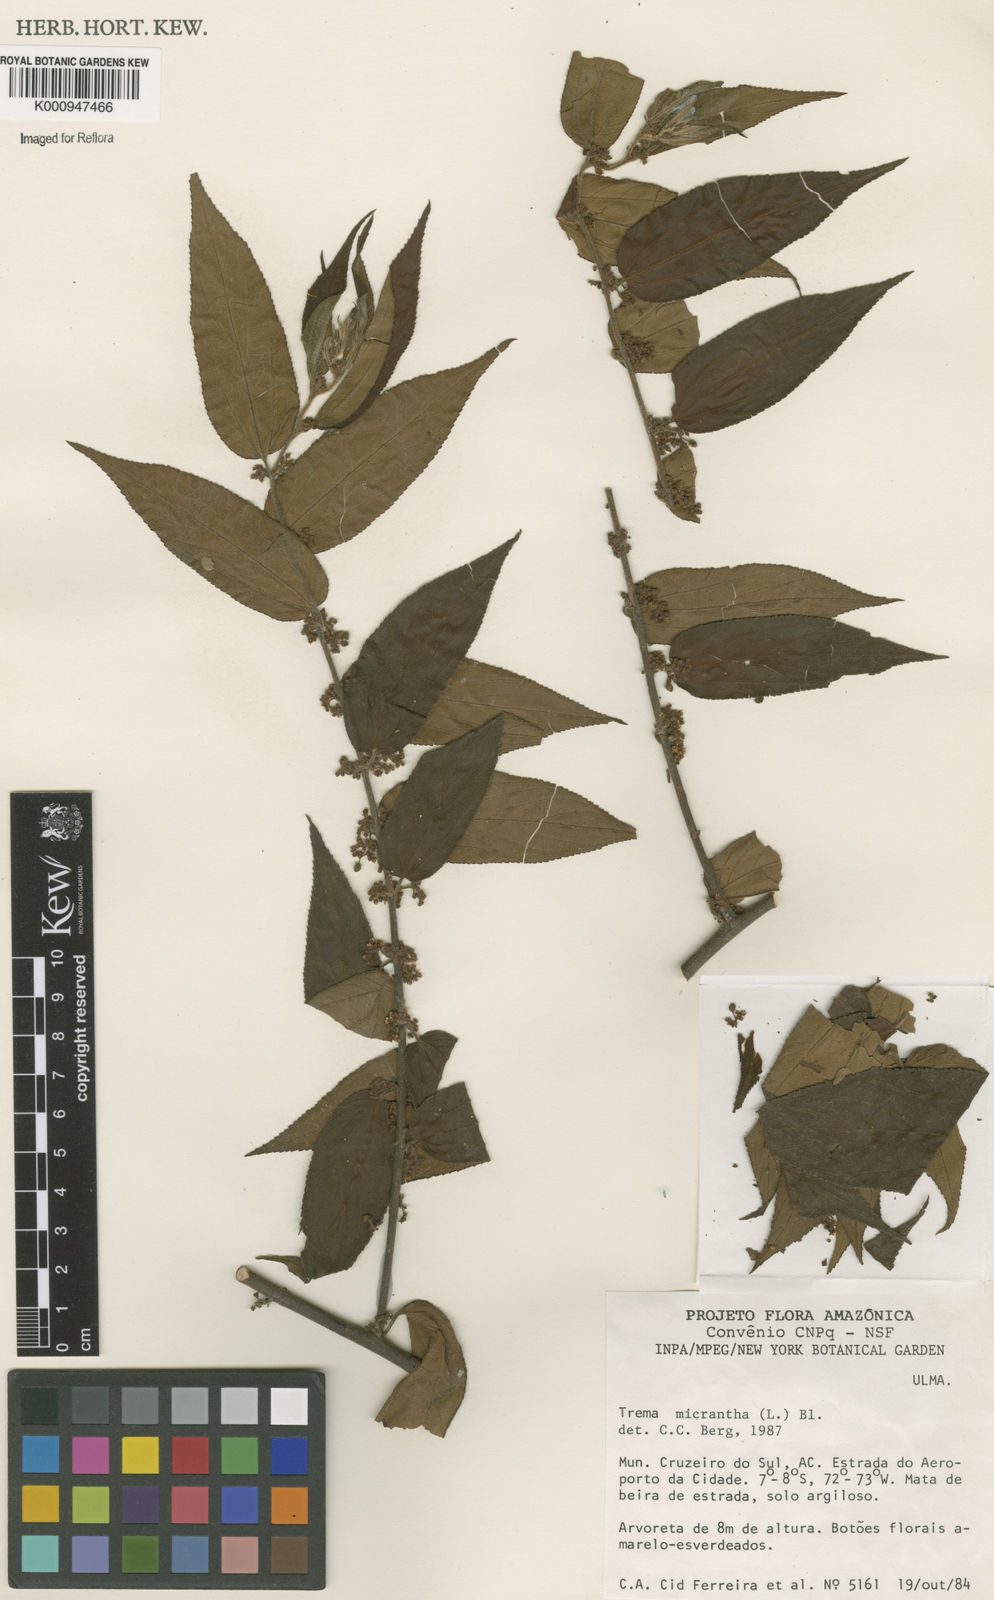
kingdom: Plantae
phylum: Tracheophyta
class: Magnoliopsida
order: Rosales
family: Cannabaceae
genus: Trema
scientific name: Trema micranthum
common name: Jamaican nettletree
